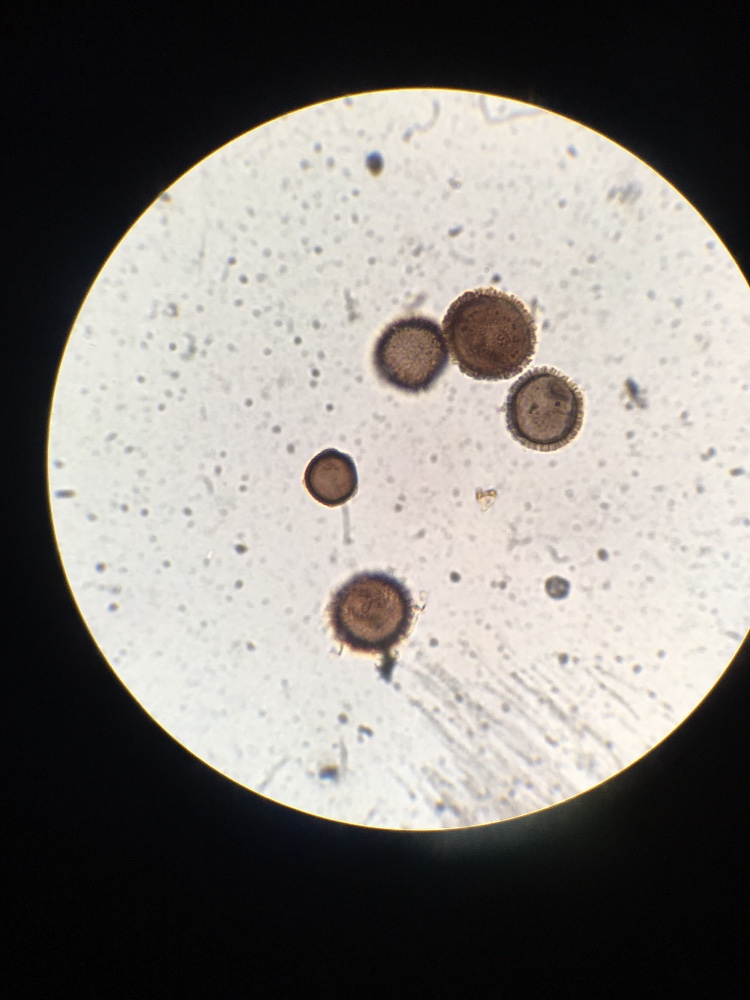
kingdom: Fungi
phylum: Ascomycota
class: Eurotiomycetes
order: Eurotiales
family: Elaphomycetaceae
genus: Elaphomyces
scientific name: Elaphomyces muricatus
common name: vortet hjortetrøffel
